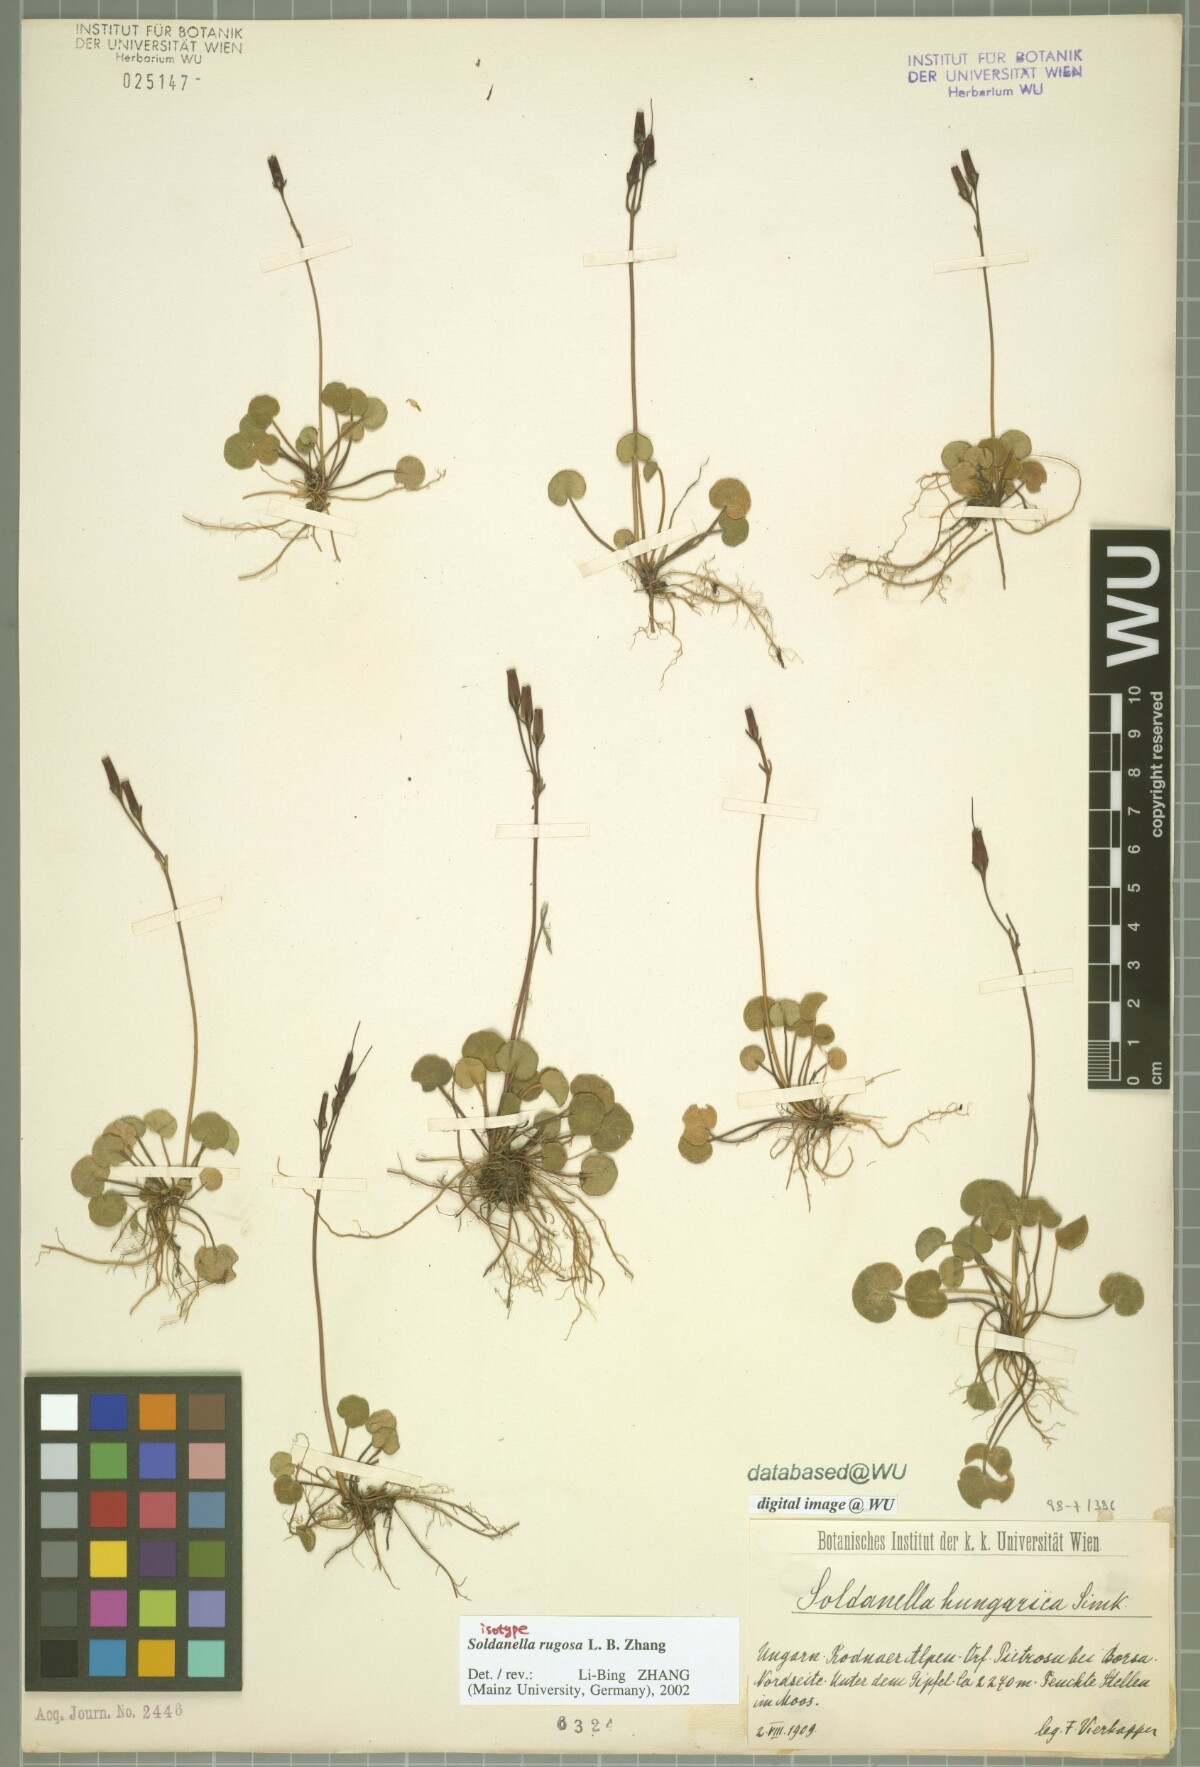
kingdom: Plantae
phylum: Tracheophyta
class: Magnoliopsida
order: Ericales
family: Primulaceae
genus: Soldanella
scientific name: Soldanella rugosa
